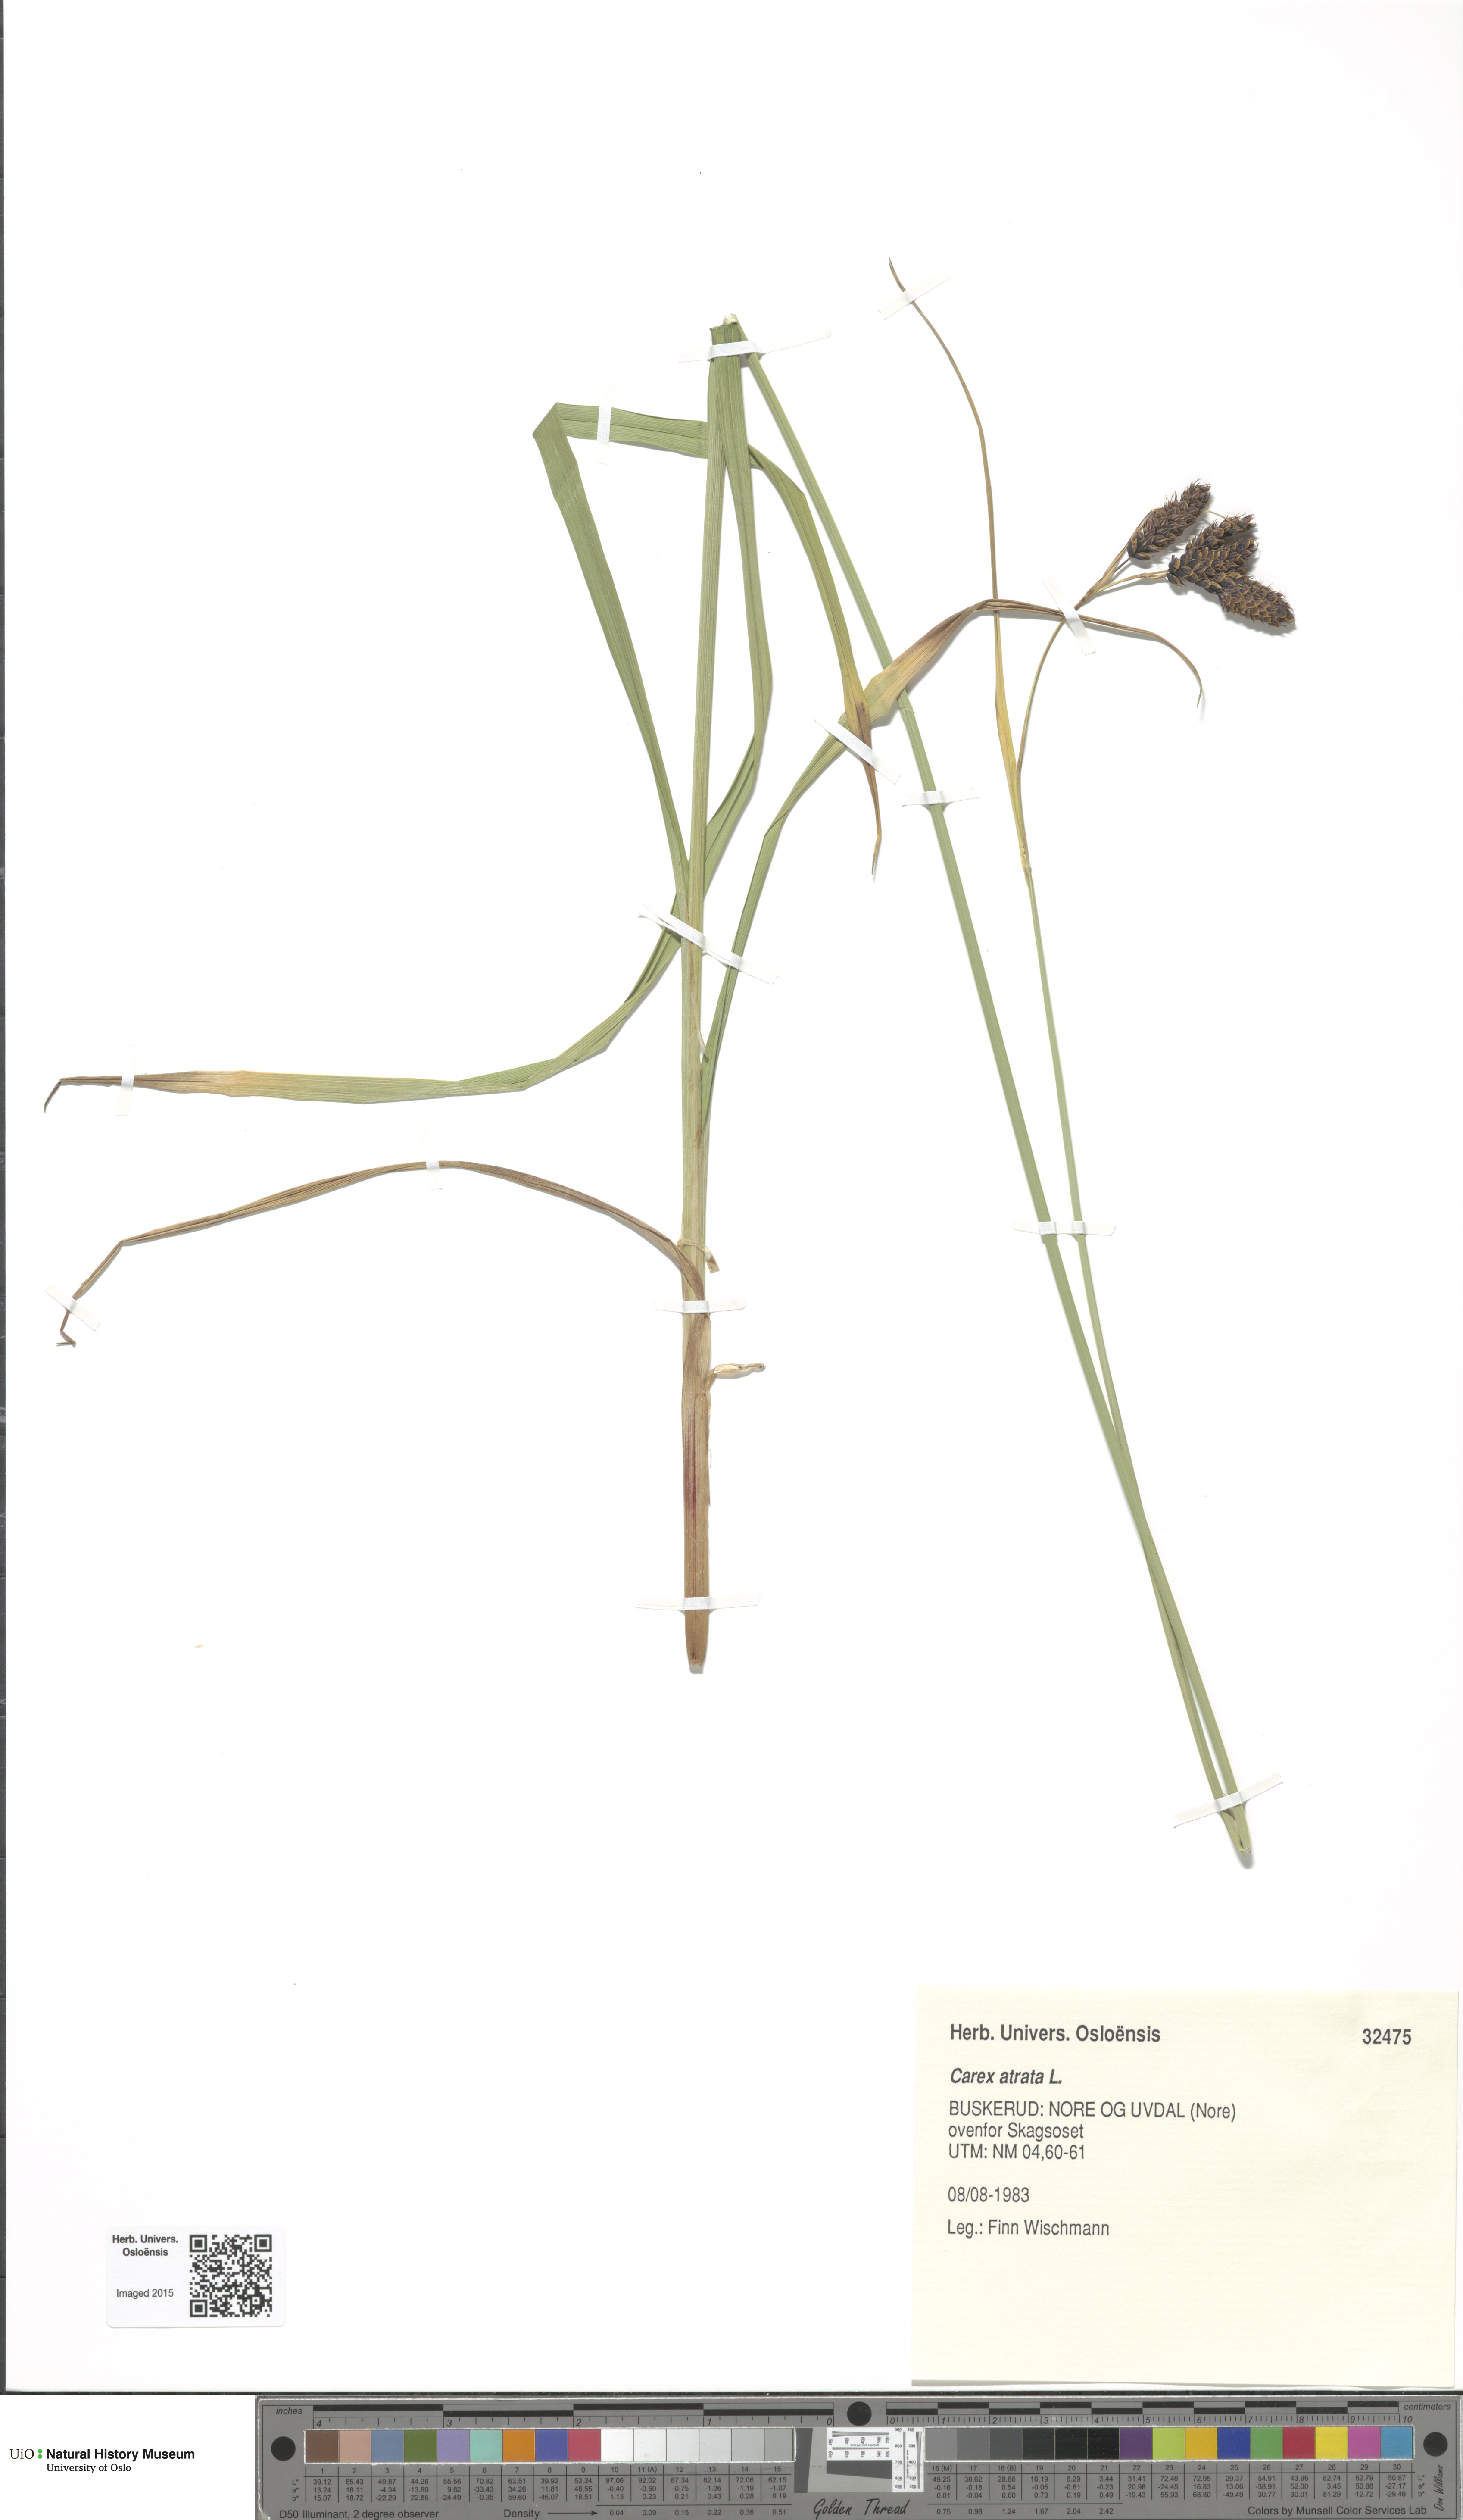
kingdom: Plantae
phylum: Tracheophyta
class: Liliopsida
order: Poales
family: Cyperaceae
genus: Carex
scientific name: Carex atrata
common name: Black alpine sedge
